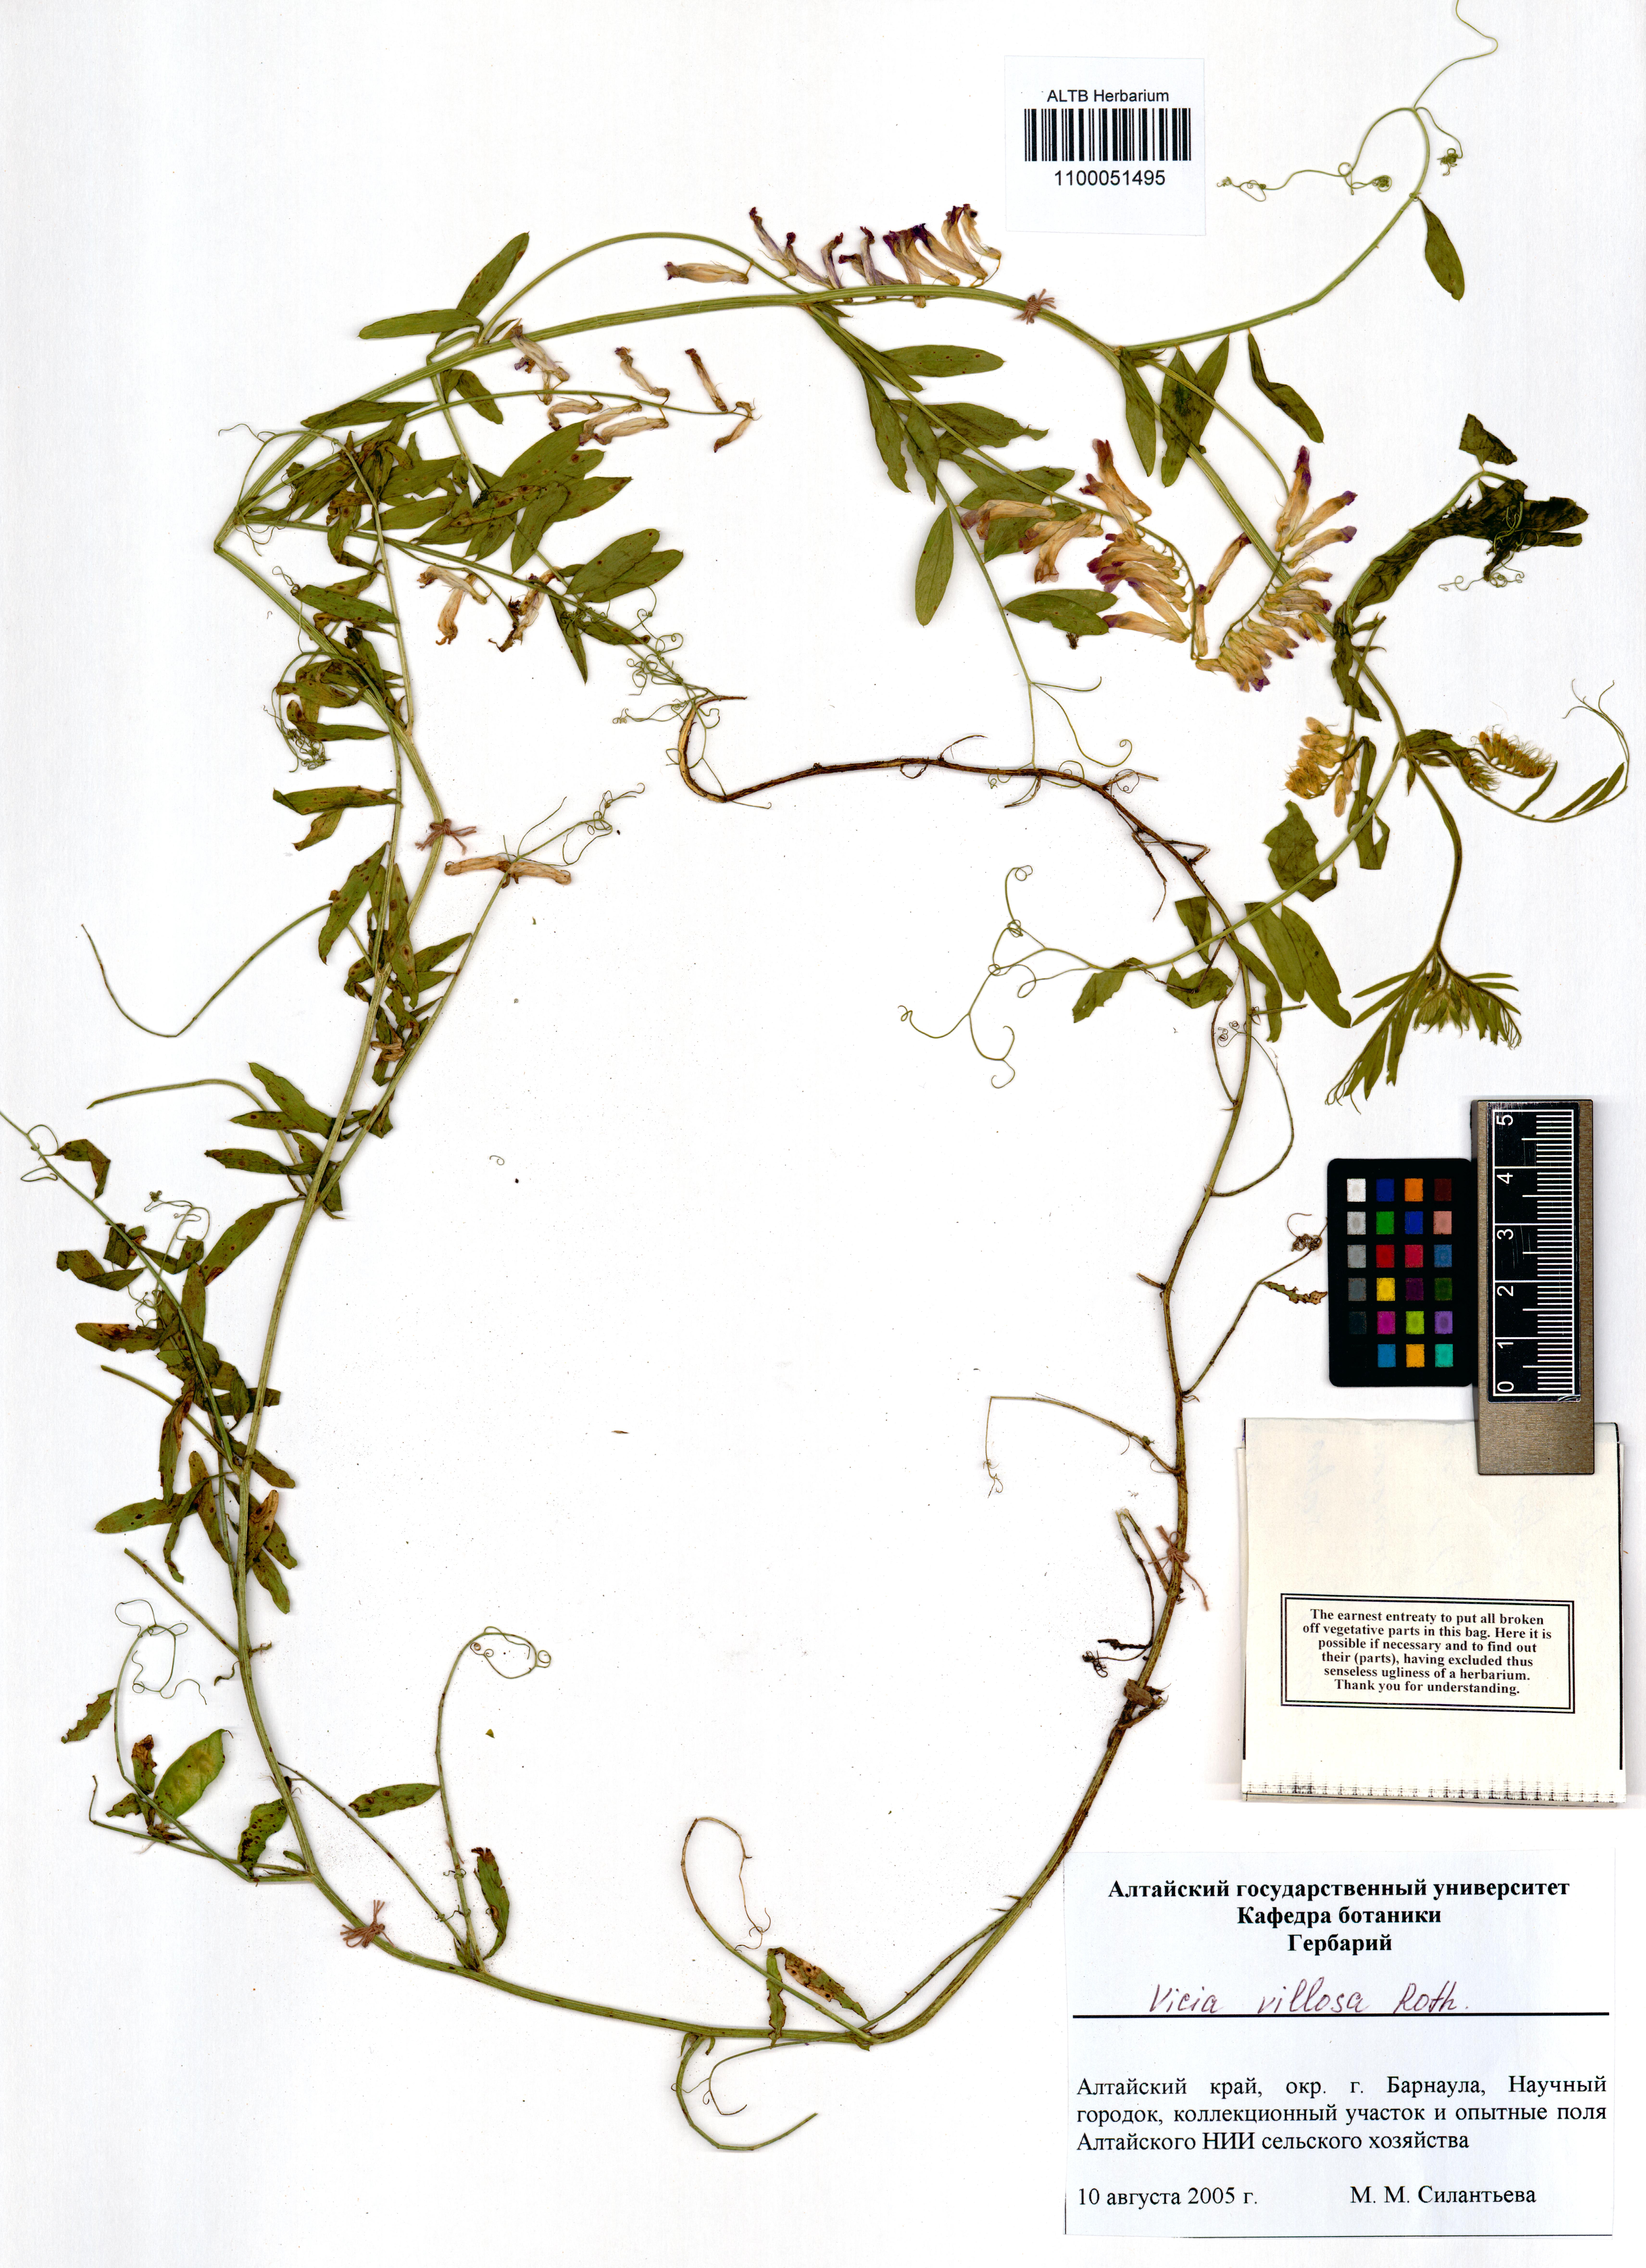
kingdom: Plantae
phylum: Tracheophyta
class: Magnoliopsida
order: Fabales
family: Fabaceae
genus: Vicia
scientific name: Vicia venosa
